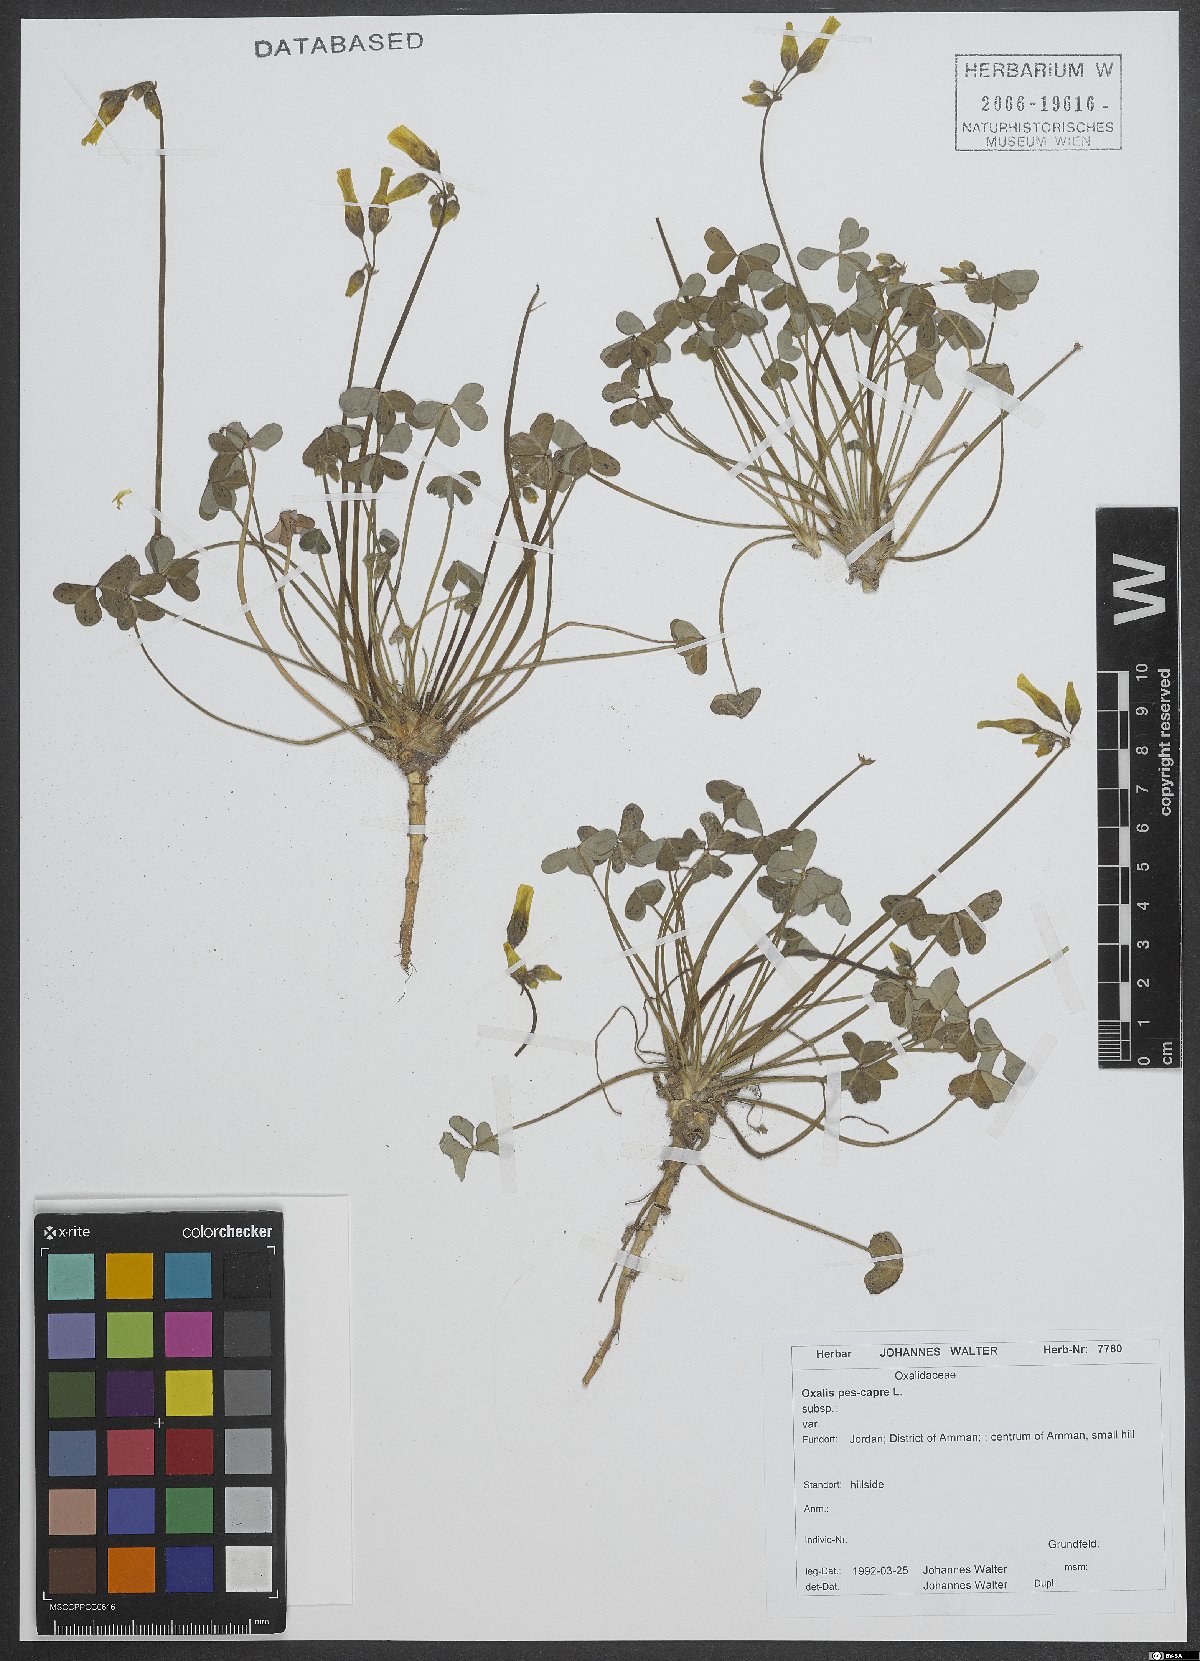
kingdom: Plantae
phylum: Tracheophyta
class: Magnoliopsida
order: Oxalidales
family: Oxalidaceae
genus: Oxalis
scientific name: Oxalis pes-caprae
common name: Bermuda-buttercup
